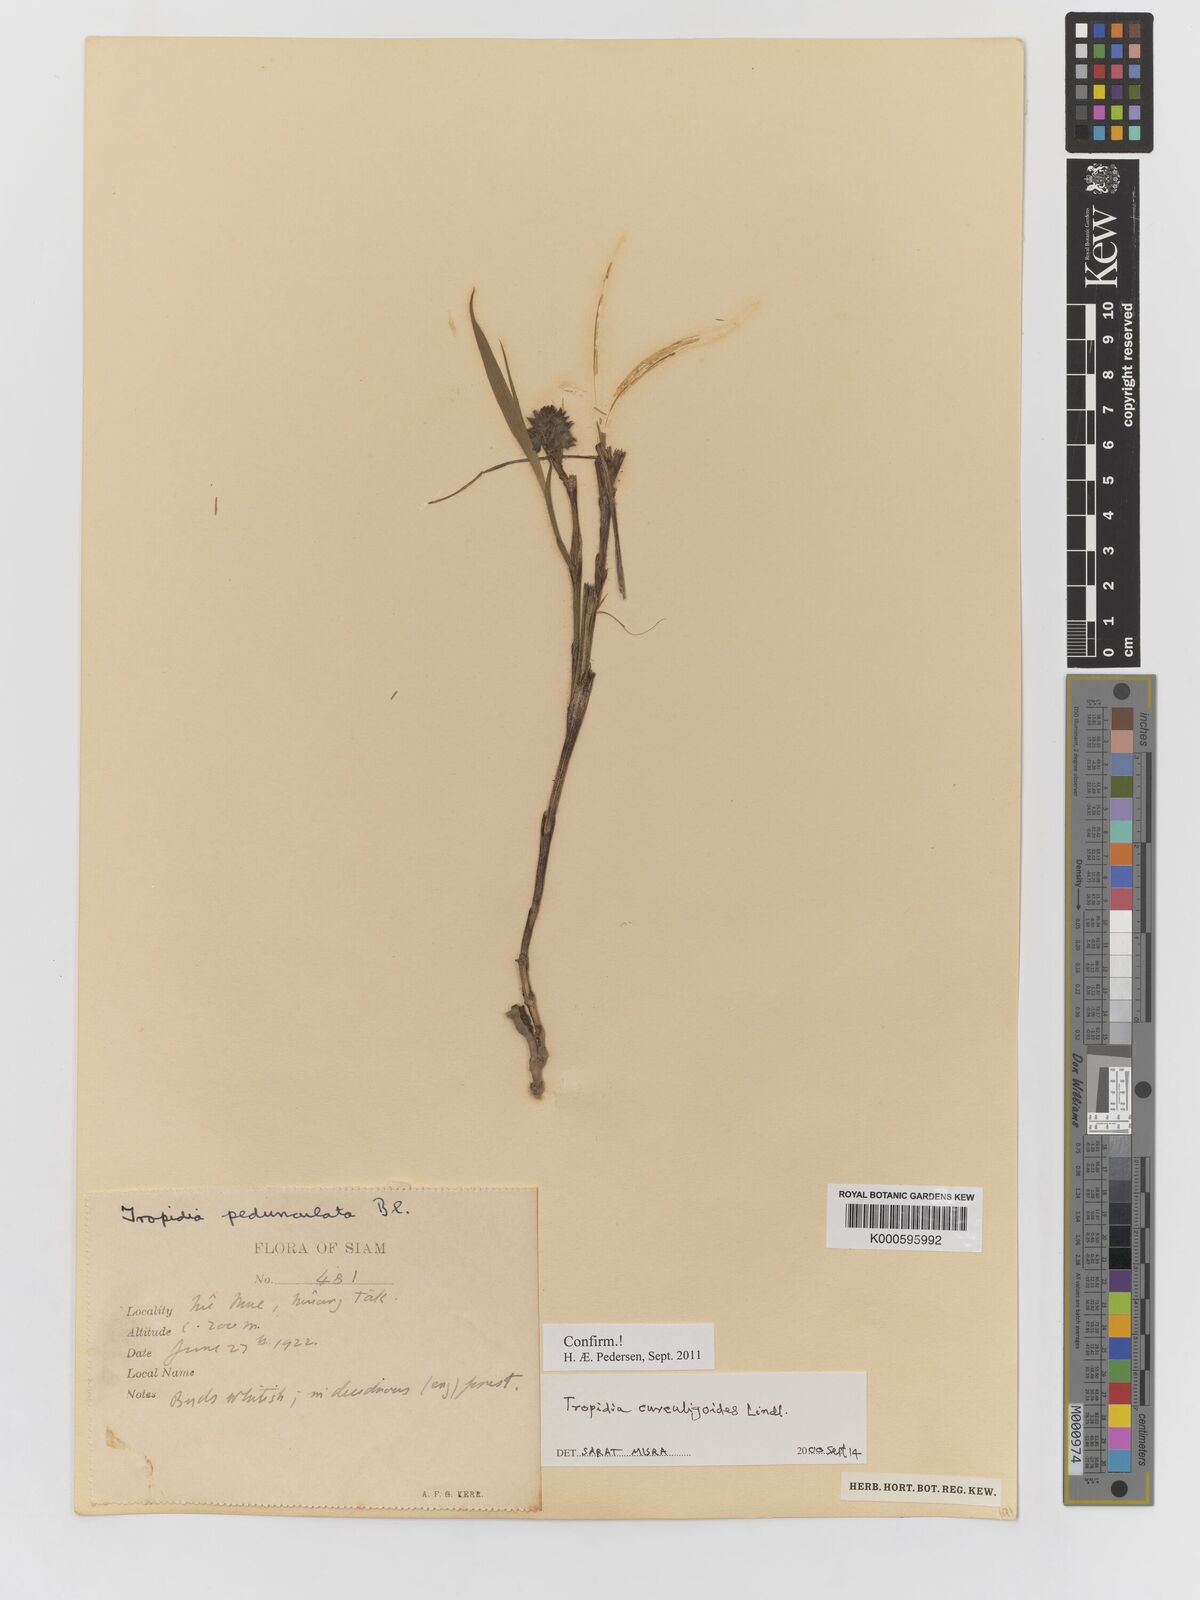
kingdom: Plantae
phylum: Tracheophyta
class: Liliopsida
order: Asparagales
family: Orchidaceae
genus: Tropidia
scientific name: Tropidia curculigoides
